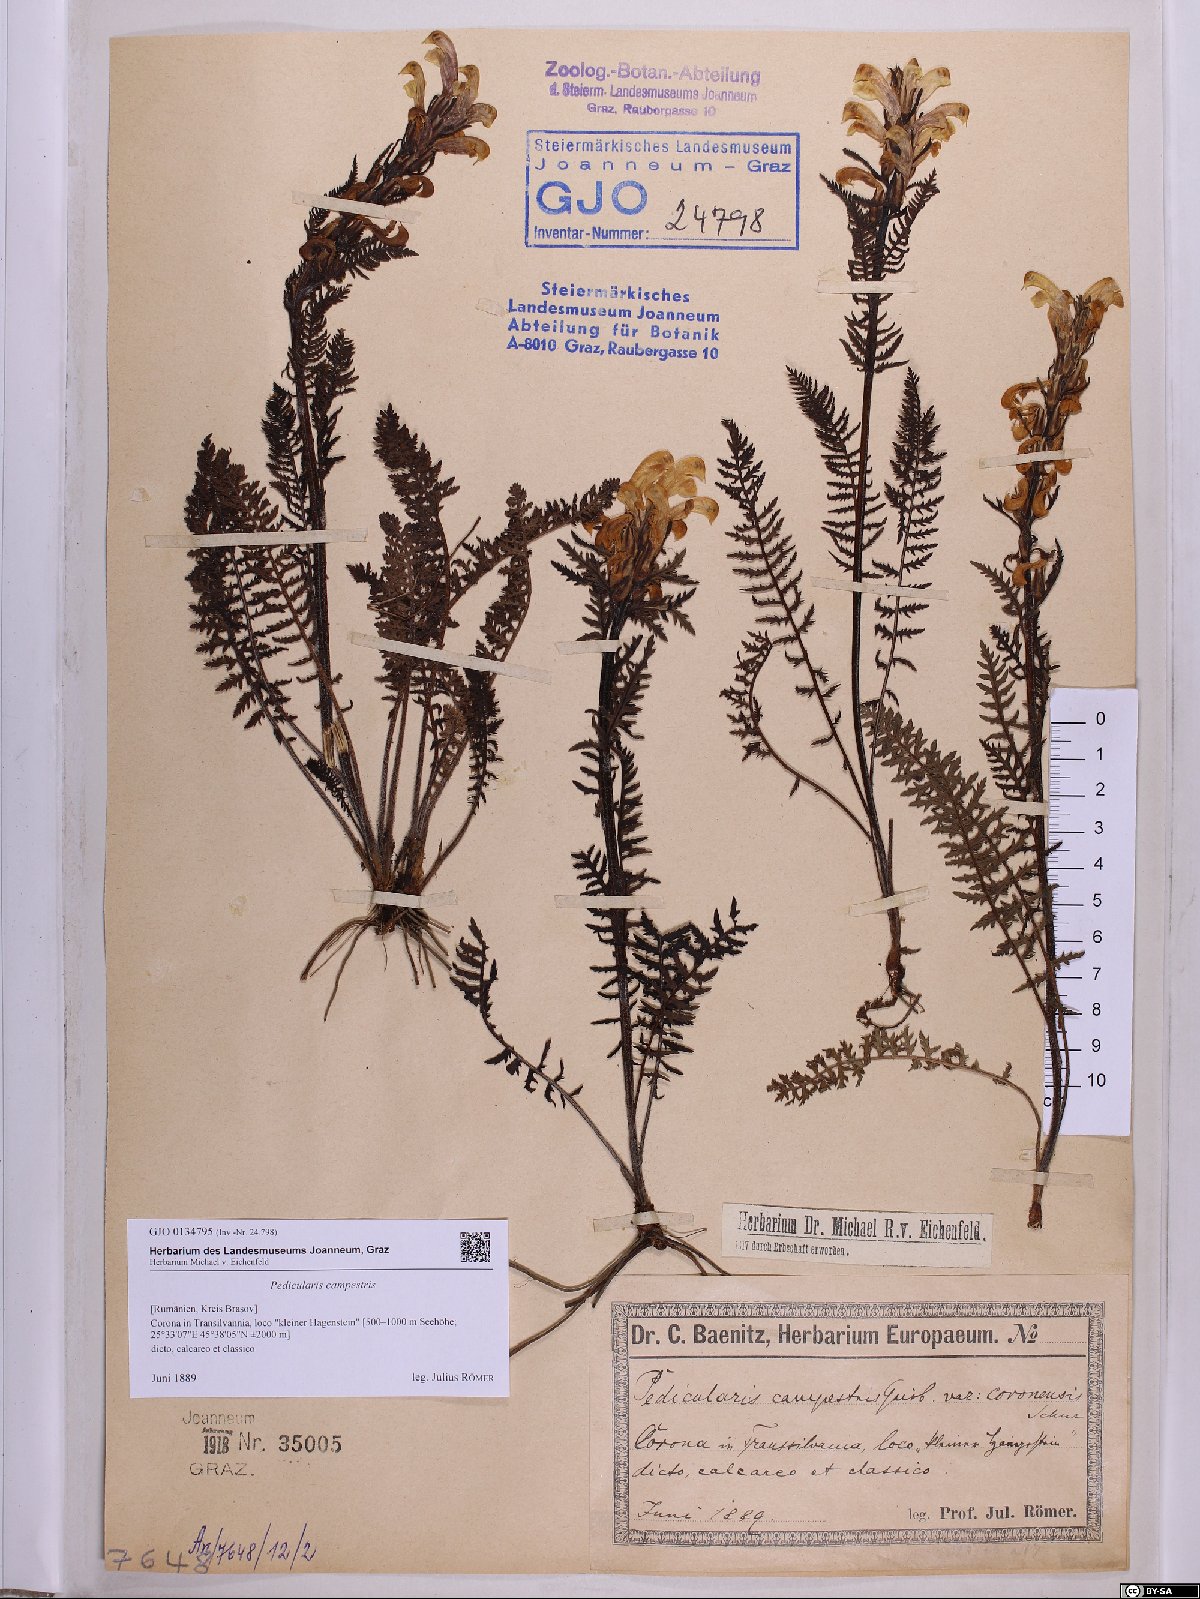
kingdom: Plantae
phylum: Tracheophyta
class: Magnoliopsida
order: Lamiales
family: Orobanchaceae
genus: Pedicularis
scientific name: Pedicularis comosa
